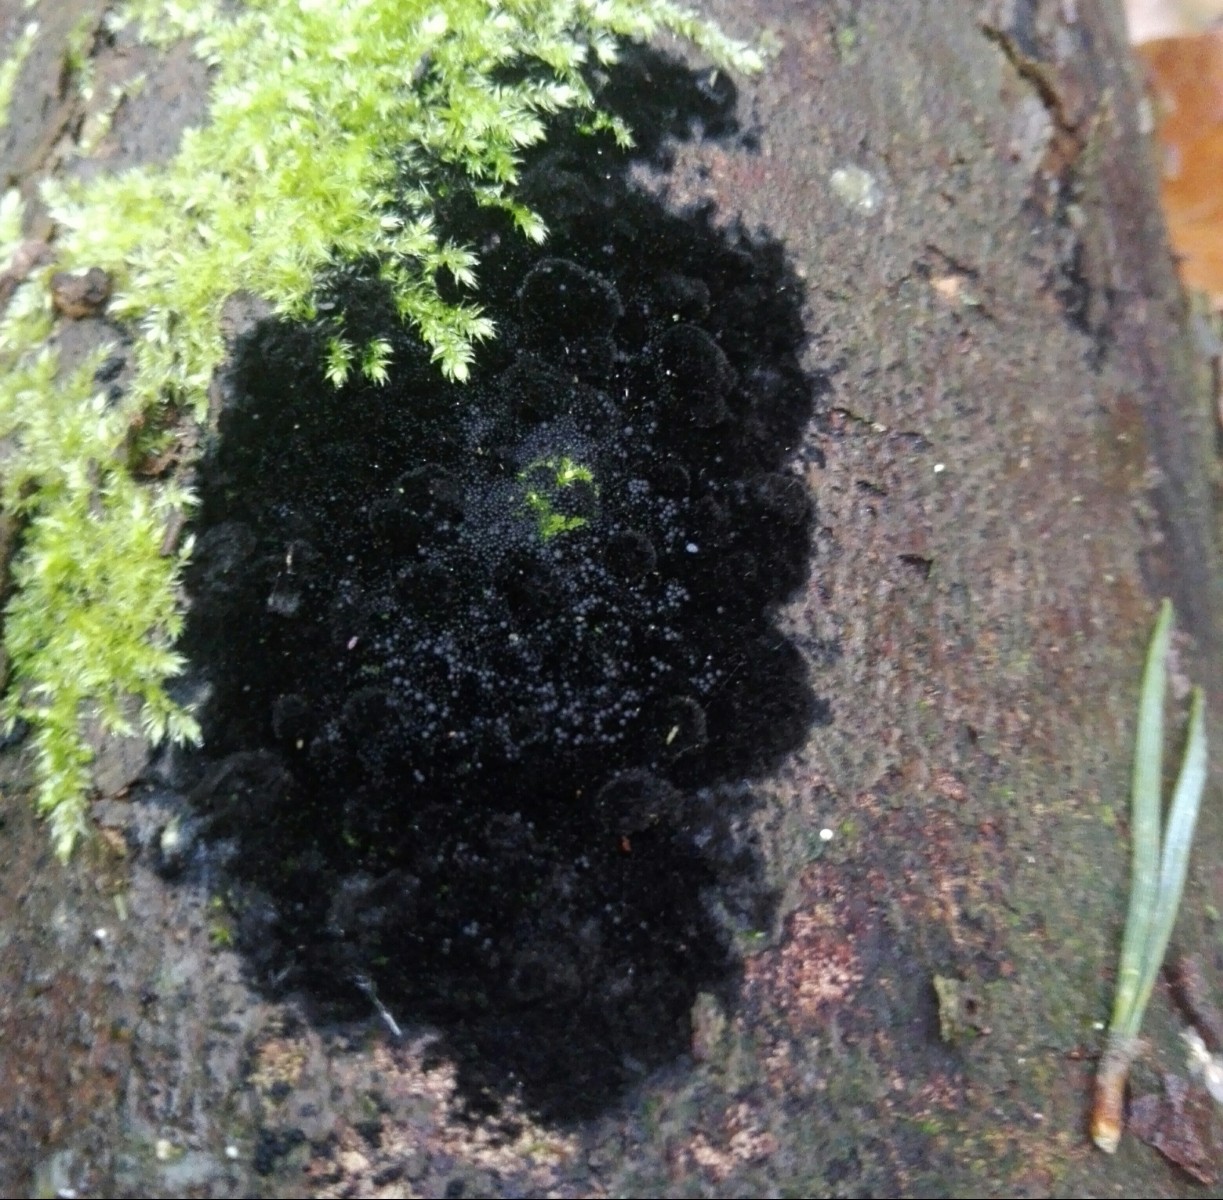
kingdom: Fungi
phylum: Ascomycota
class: Sordariomycetes
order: Coronophorales
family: Chaetosphaerellaceae
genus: Chaetosphaerella
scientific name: Chaetosphaerella phaeostroma
